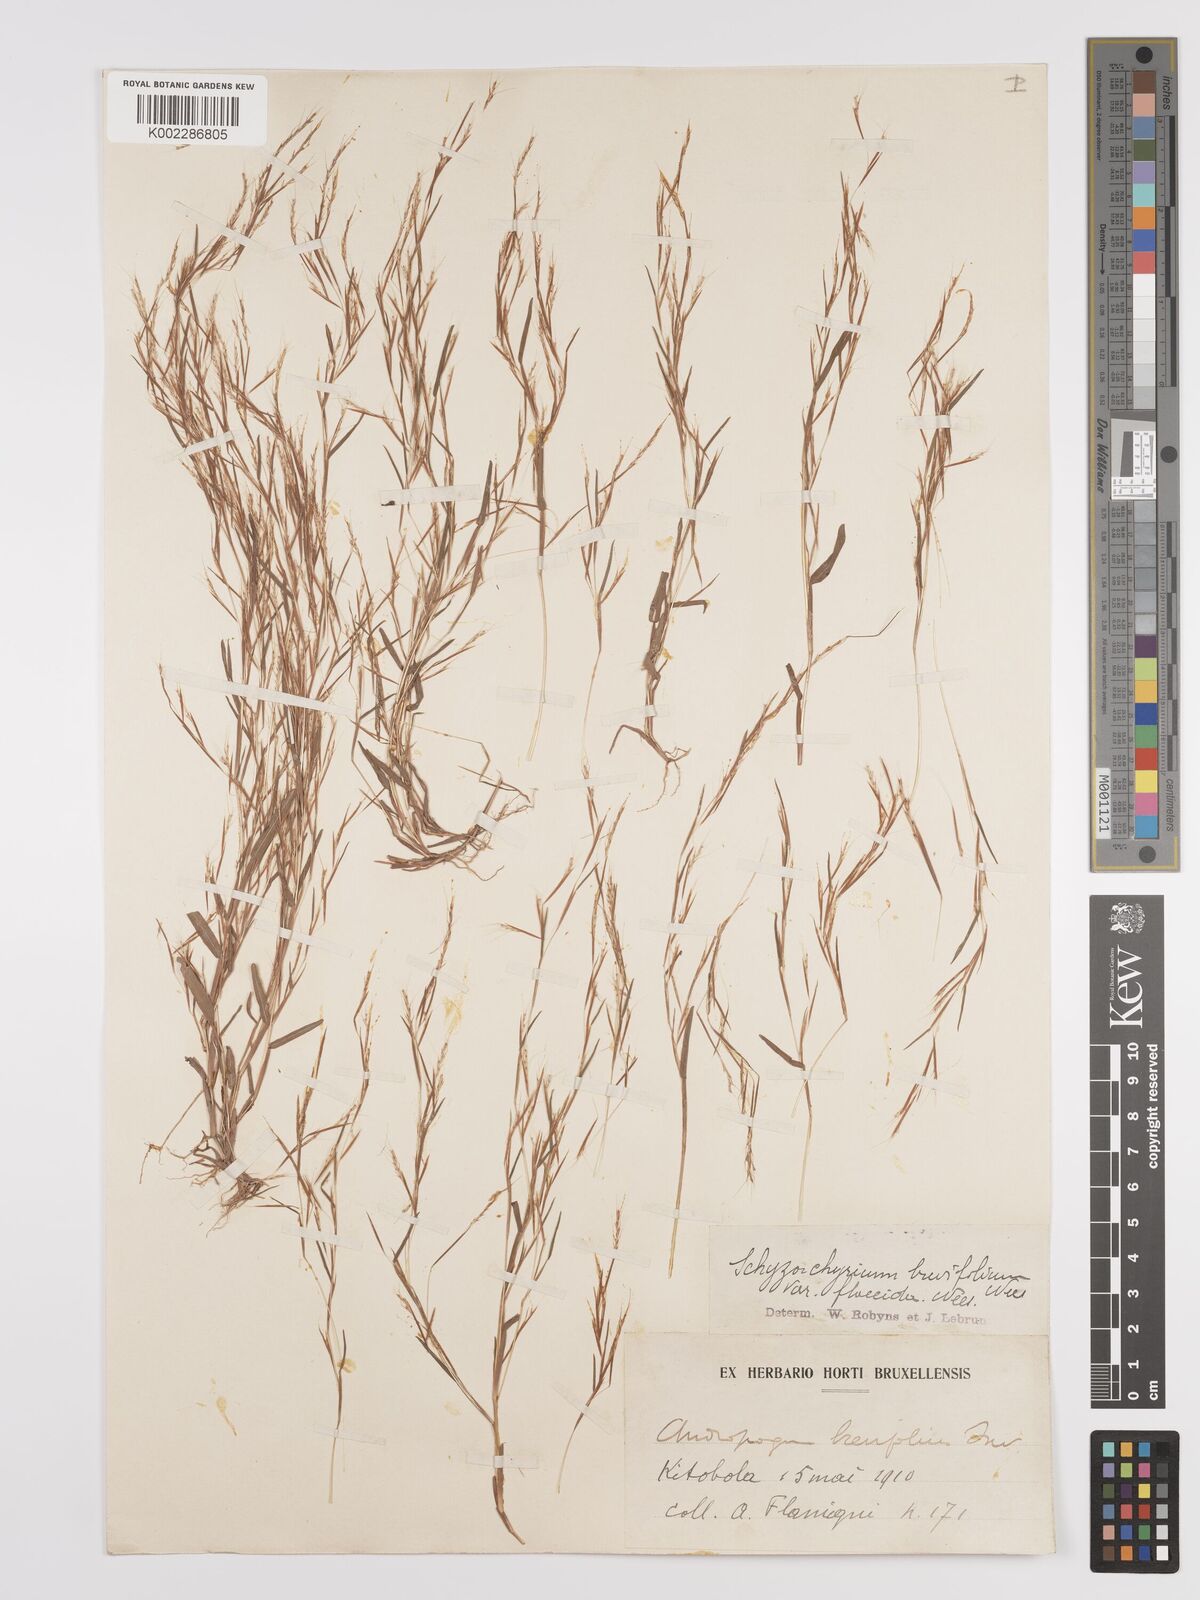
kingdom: Plantae
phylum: Tracheophyta
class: Liliopsida
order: Poales
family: Poaceae
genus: Schizachyrium
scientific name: Schizachyrium brevifolium
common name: Serillo dulce
